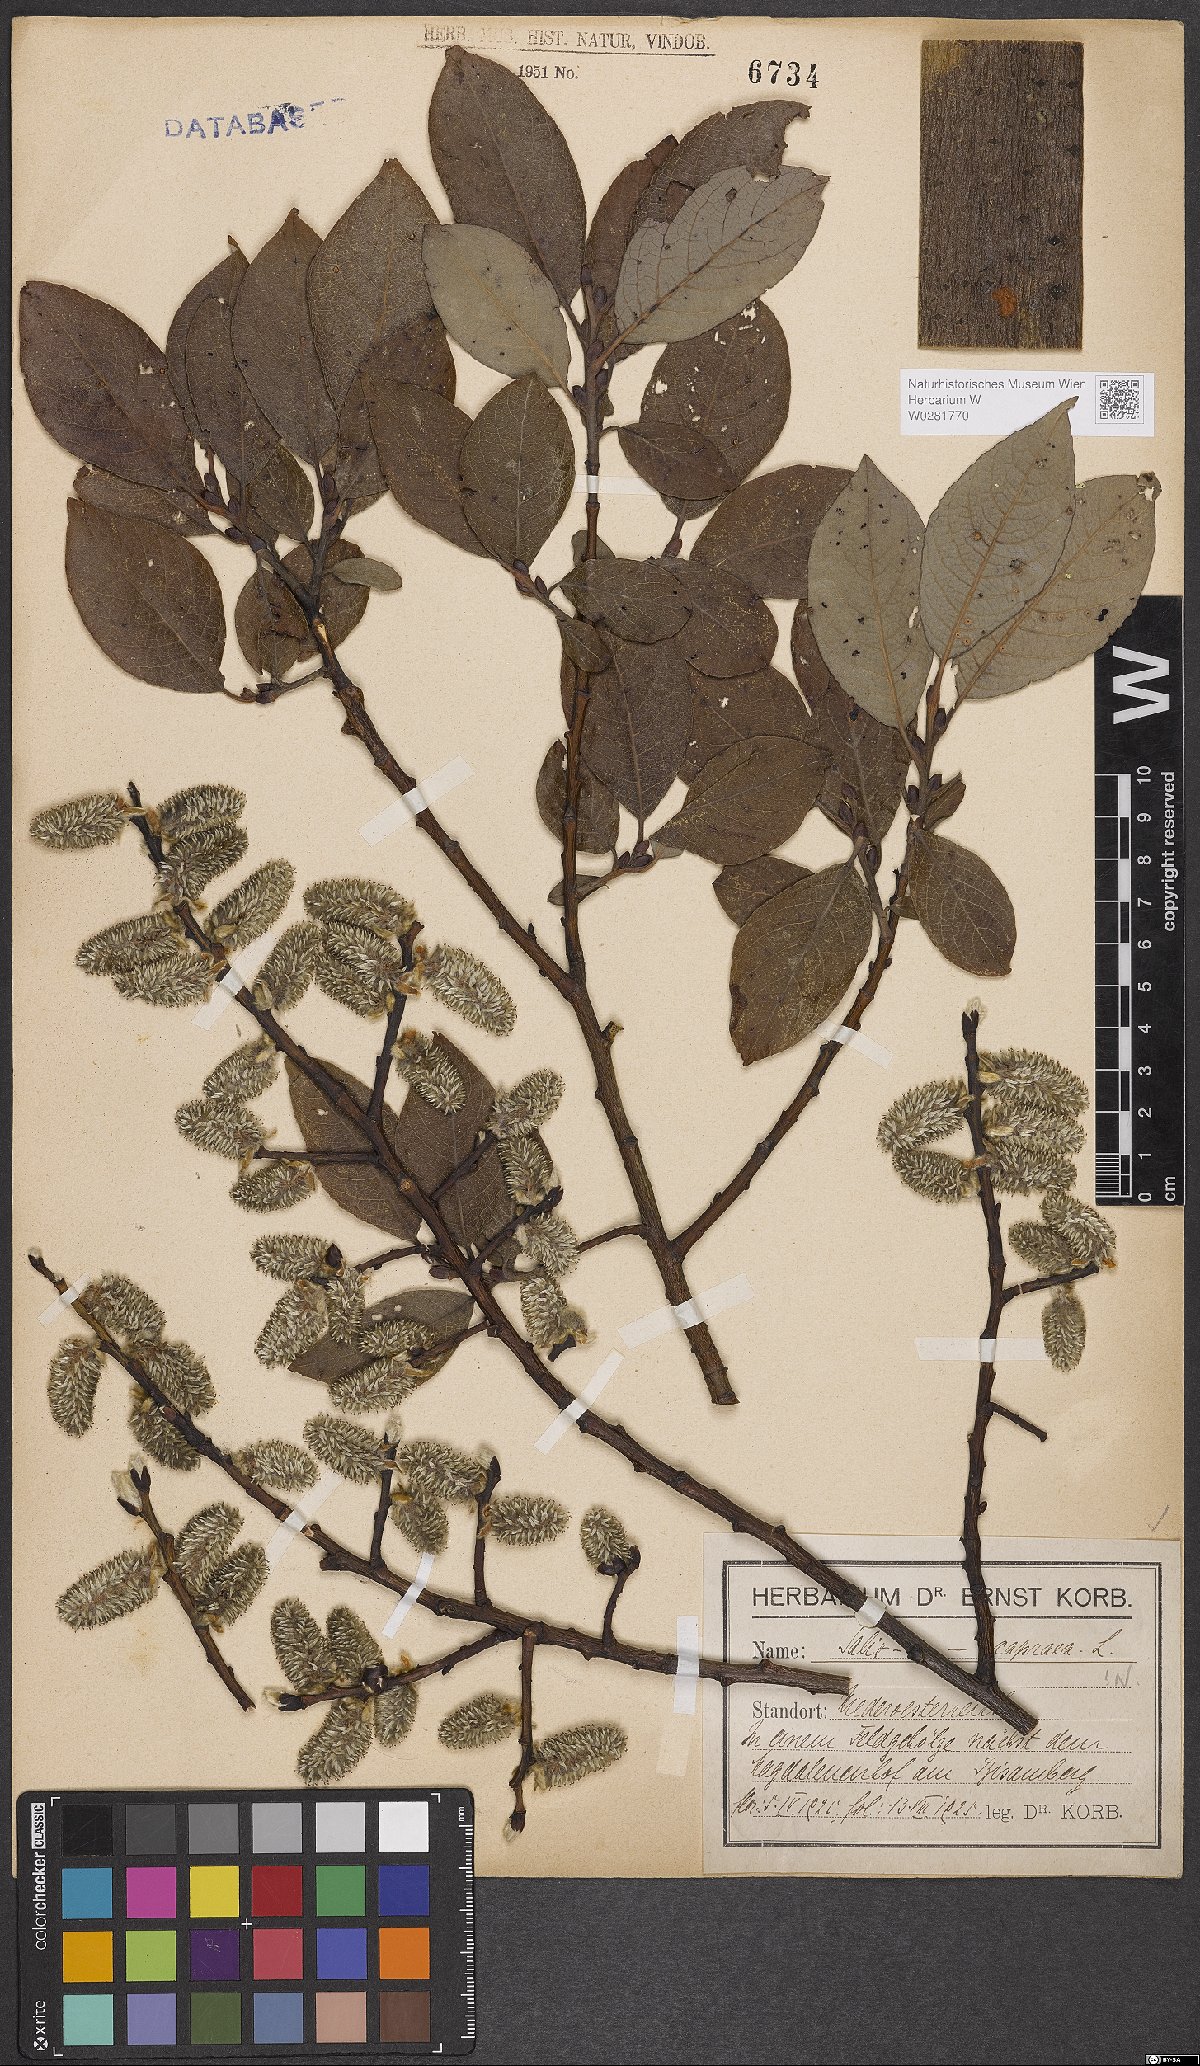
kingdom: Plantae
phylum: Tracheophyta
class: Magnoliopsida
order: Malpighiales
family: Salicaceae
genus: Salix
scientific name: Salix caprea
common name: Goat willow
